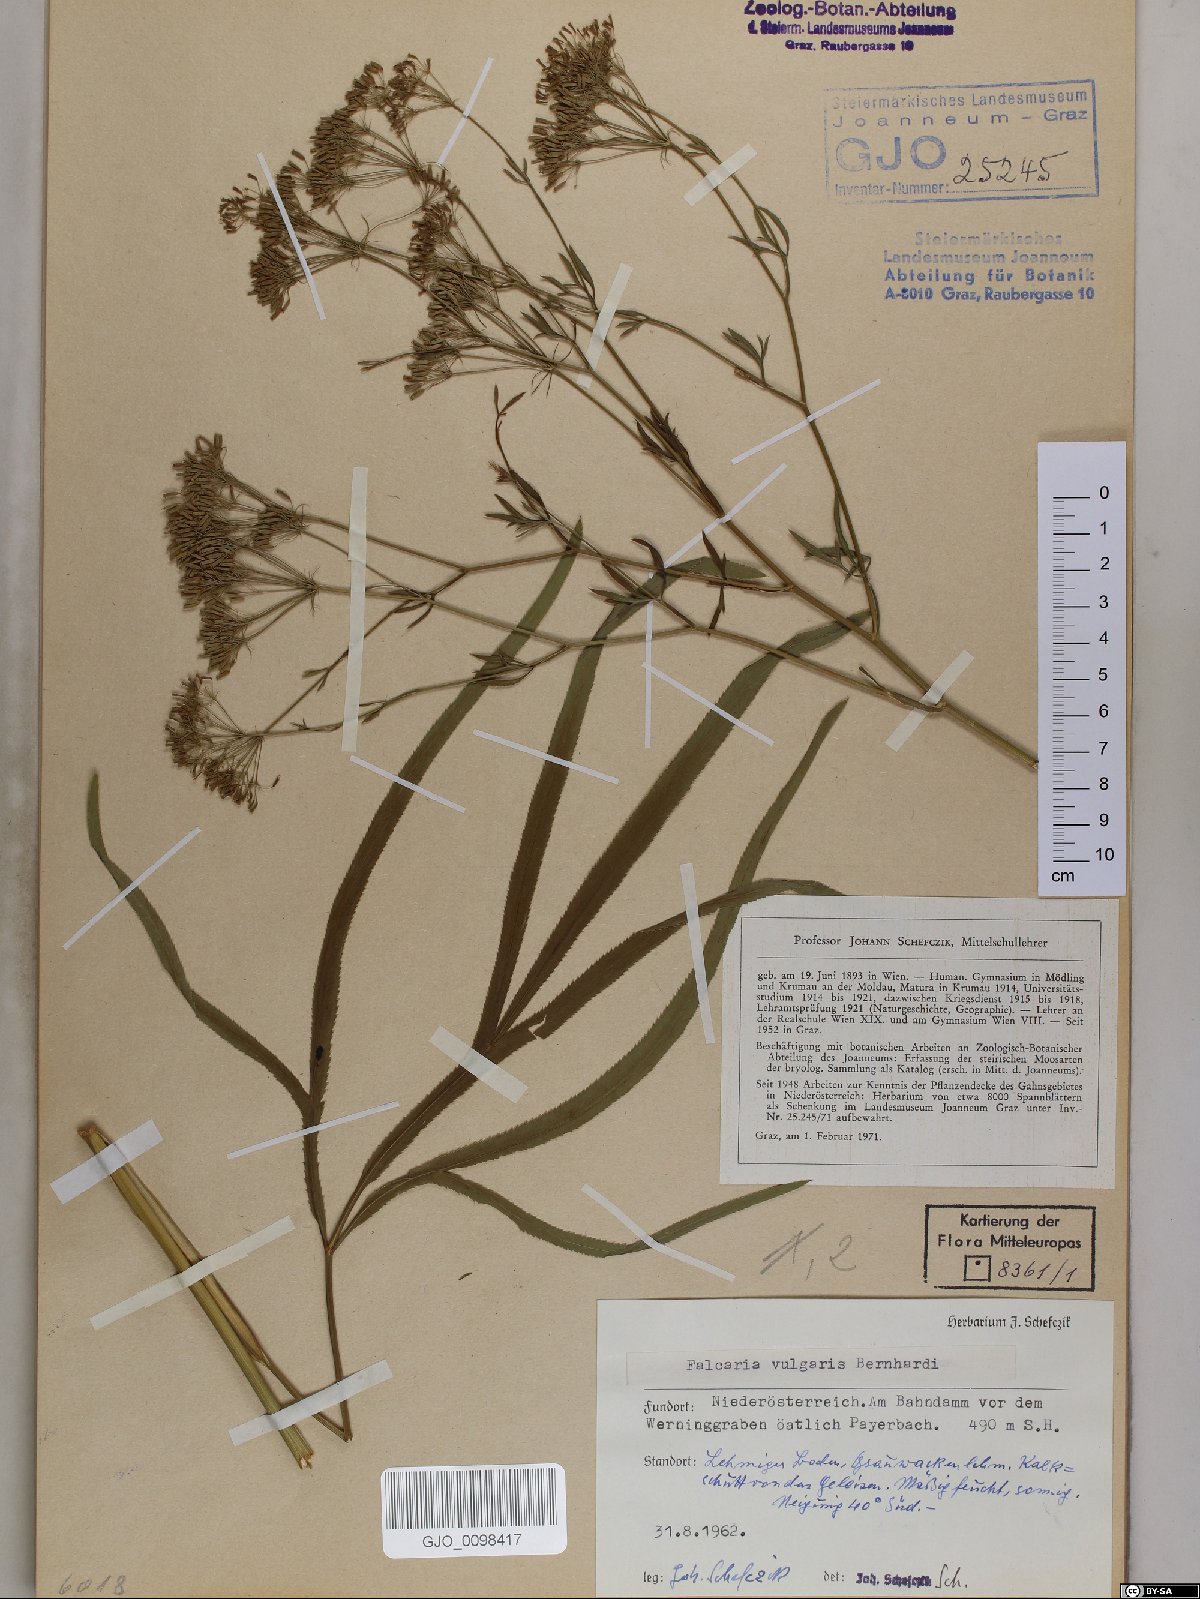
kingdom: Plantae
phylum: Tracheophyta
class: Magnoliopsida
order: Apiales
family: Apiaceae
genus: Falcaria
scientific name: Falcaria vulgaris
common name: Longleaf
